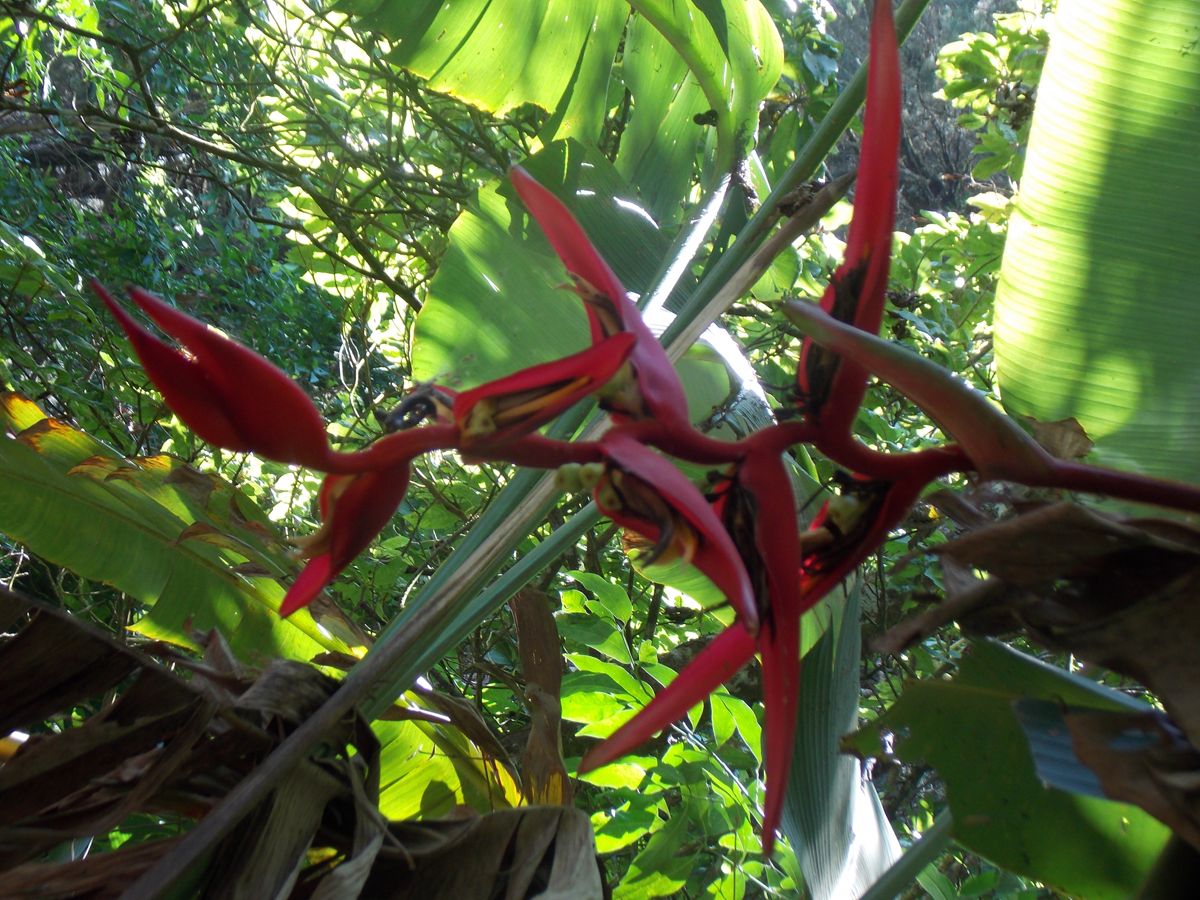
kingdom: Plantae
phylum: Tracheophyta
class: Liliopsida
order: Zingiberales
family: Heliconiaceae
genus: Heliconia
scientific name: Heliconia collinsiana
